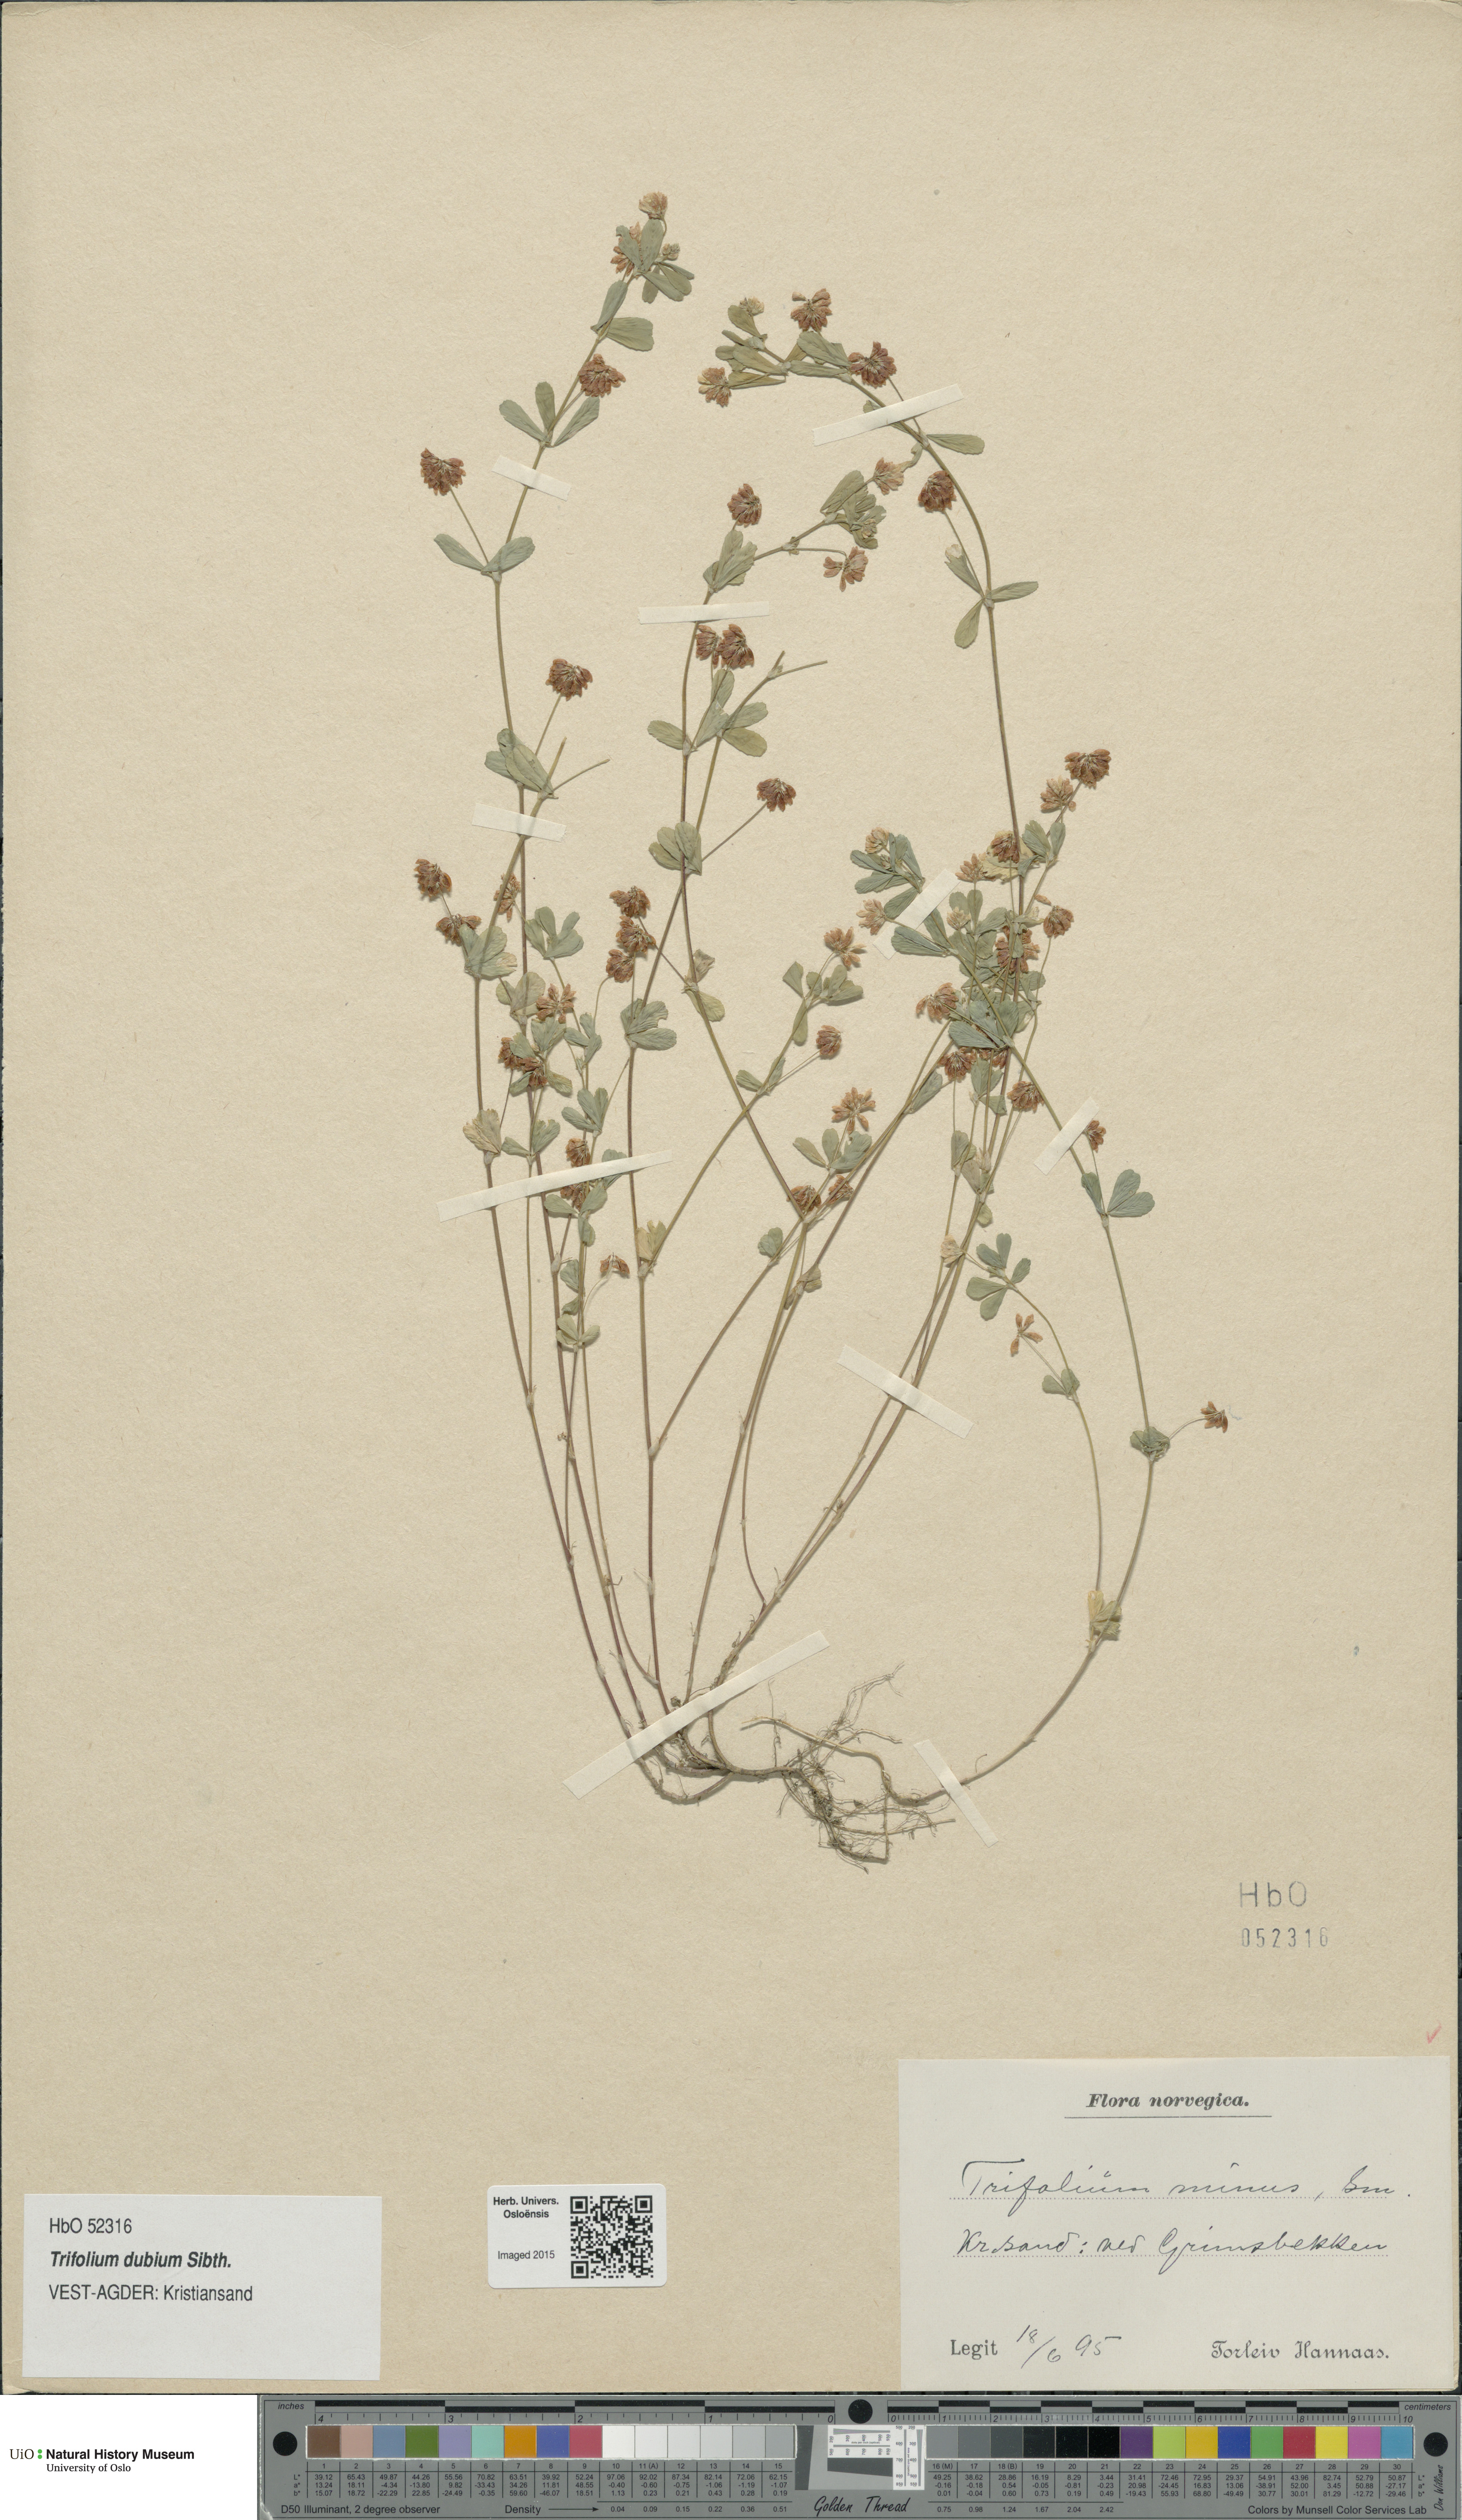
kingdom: Plantae
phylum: Tracheophyta
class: Magnoliopsida
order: Fabales
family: Fabaceae
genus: Trifolium
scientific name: Trifolium dubium
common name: Suckling clover
